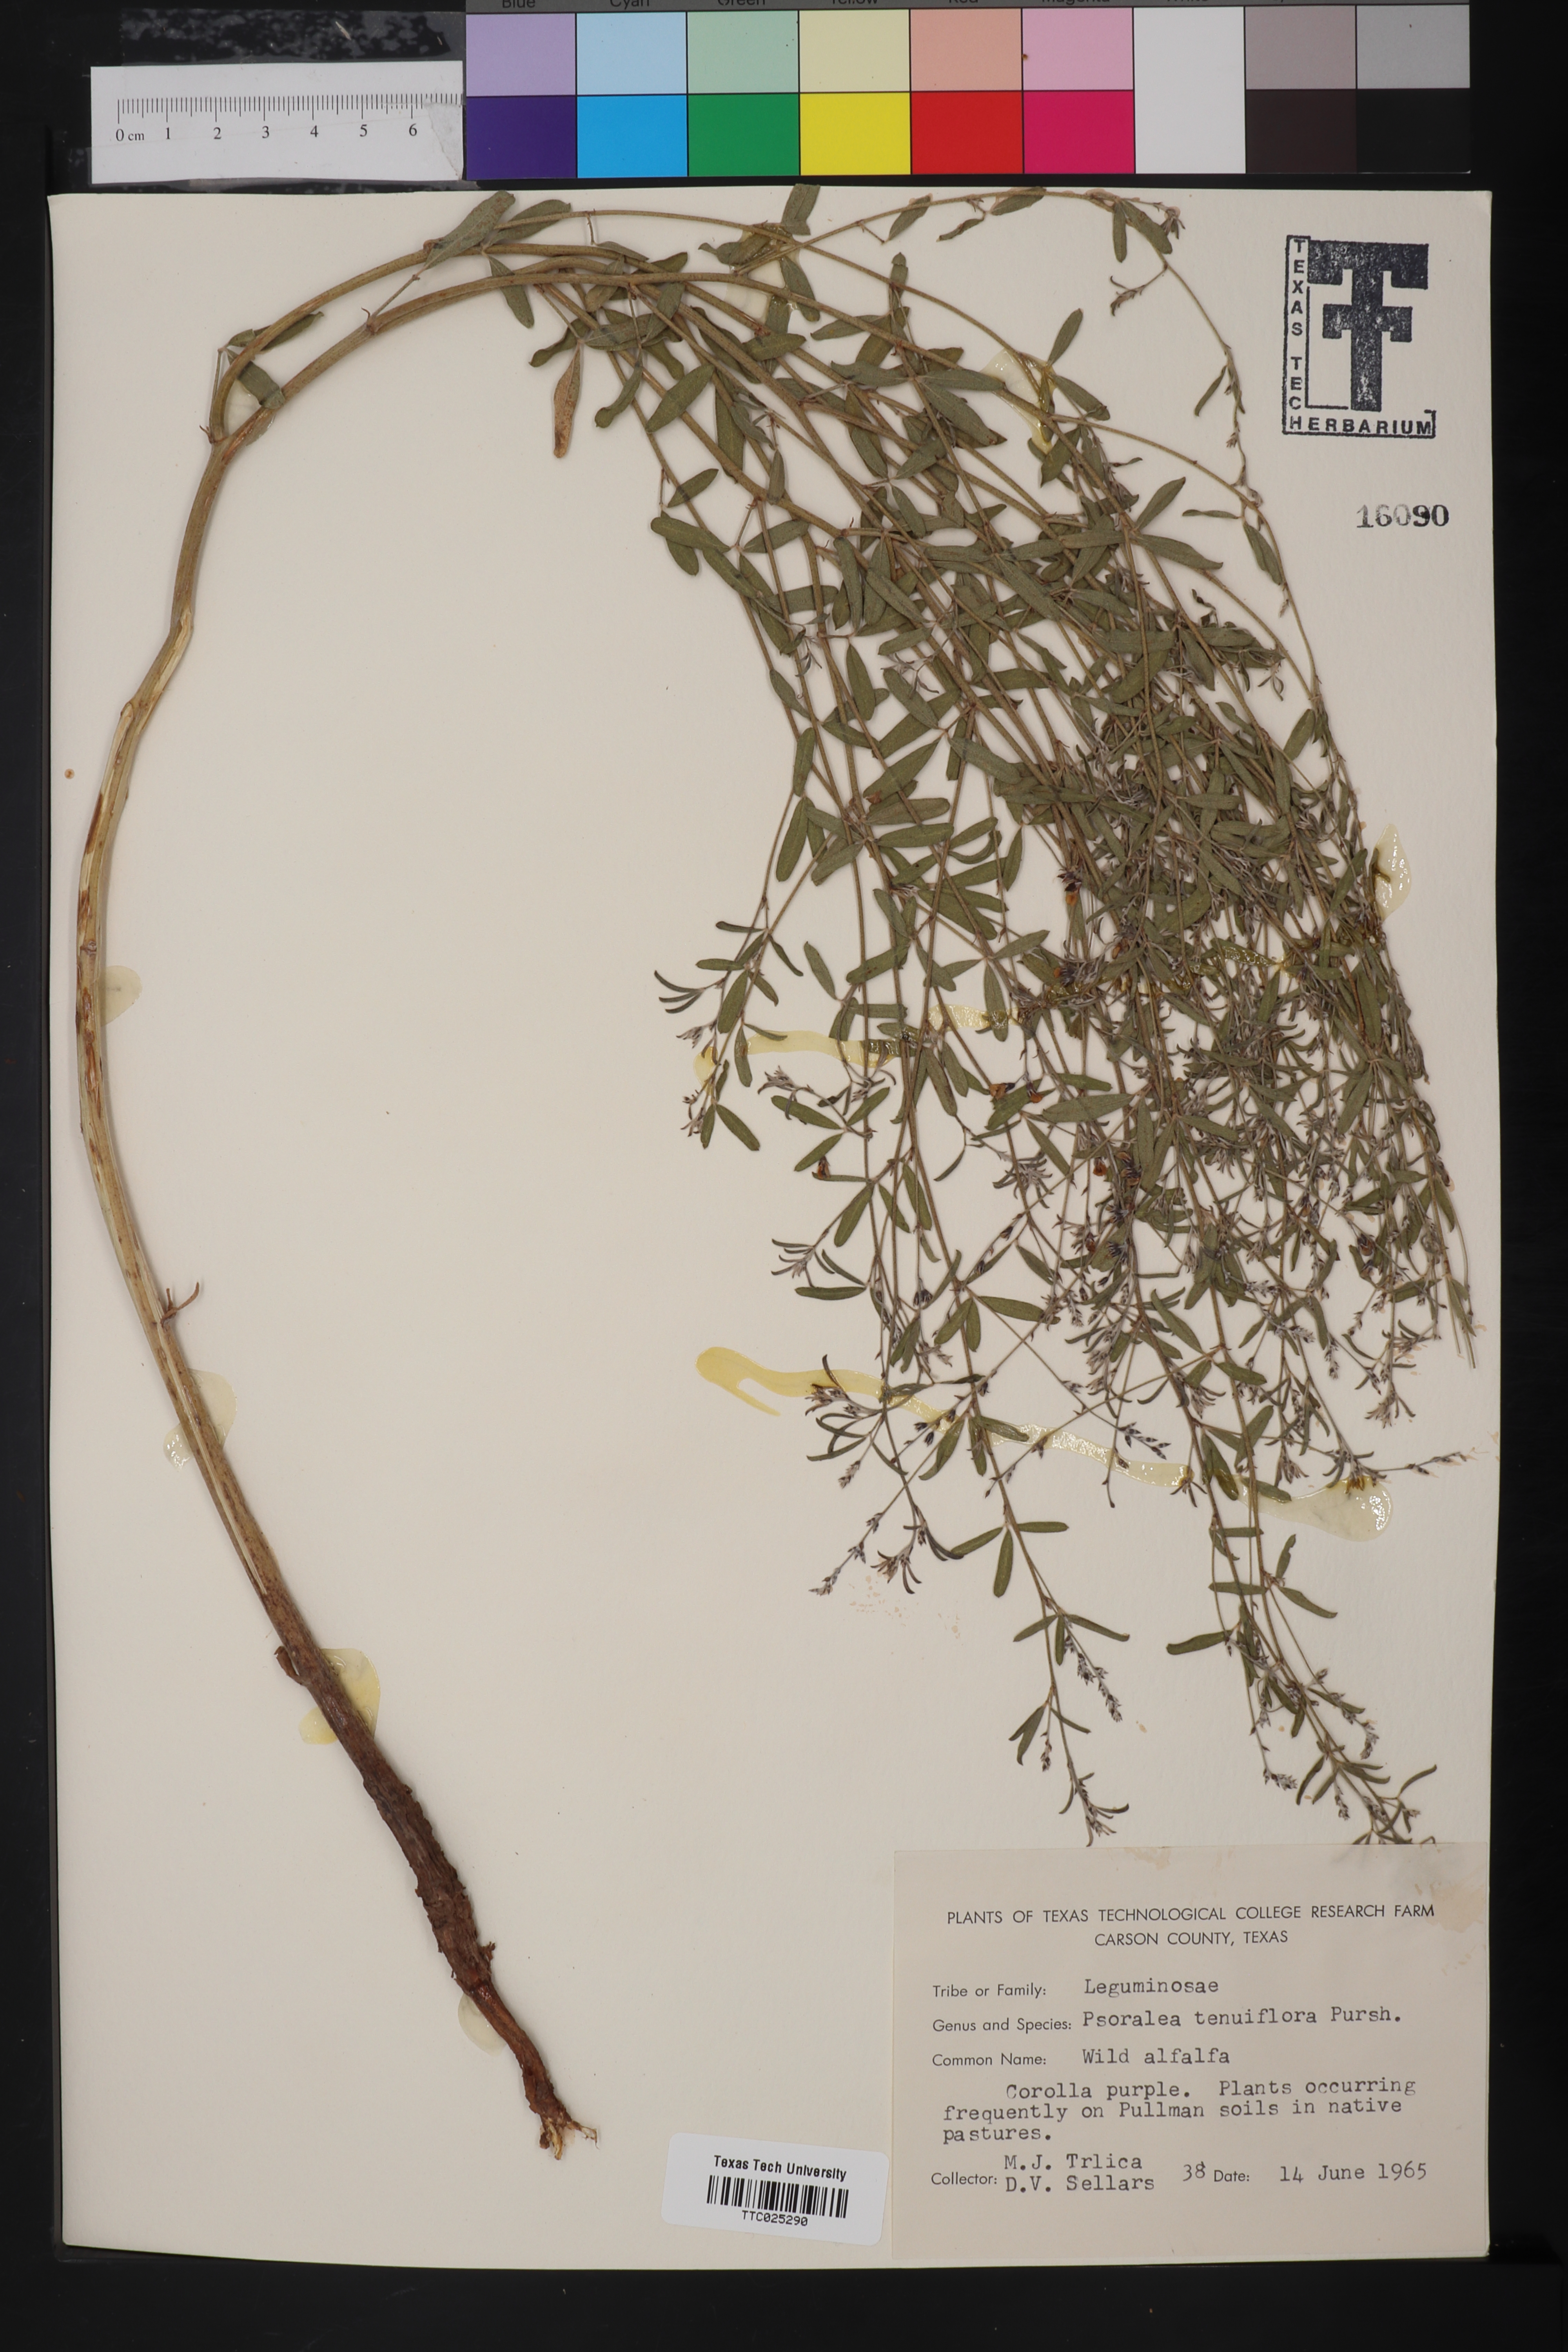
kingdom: Plantae
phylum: Tracheophyta
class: Magnoliopsida
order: Fabales
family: Fabaceae
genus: Pediomelum
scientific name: Pediomelum tenuiflorum
